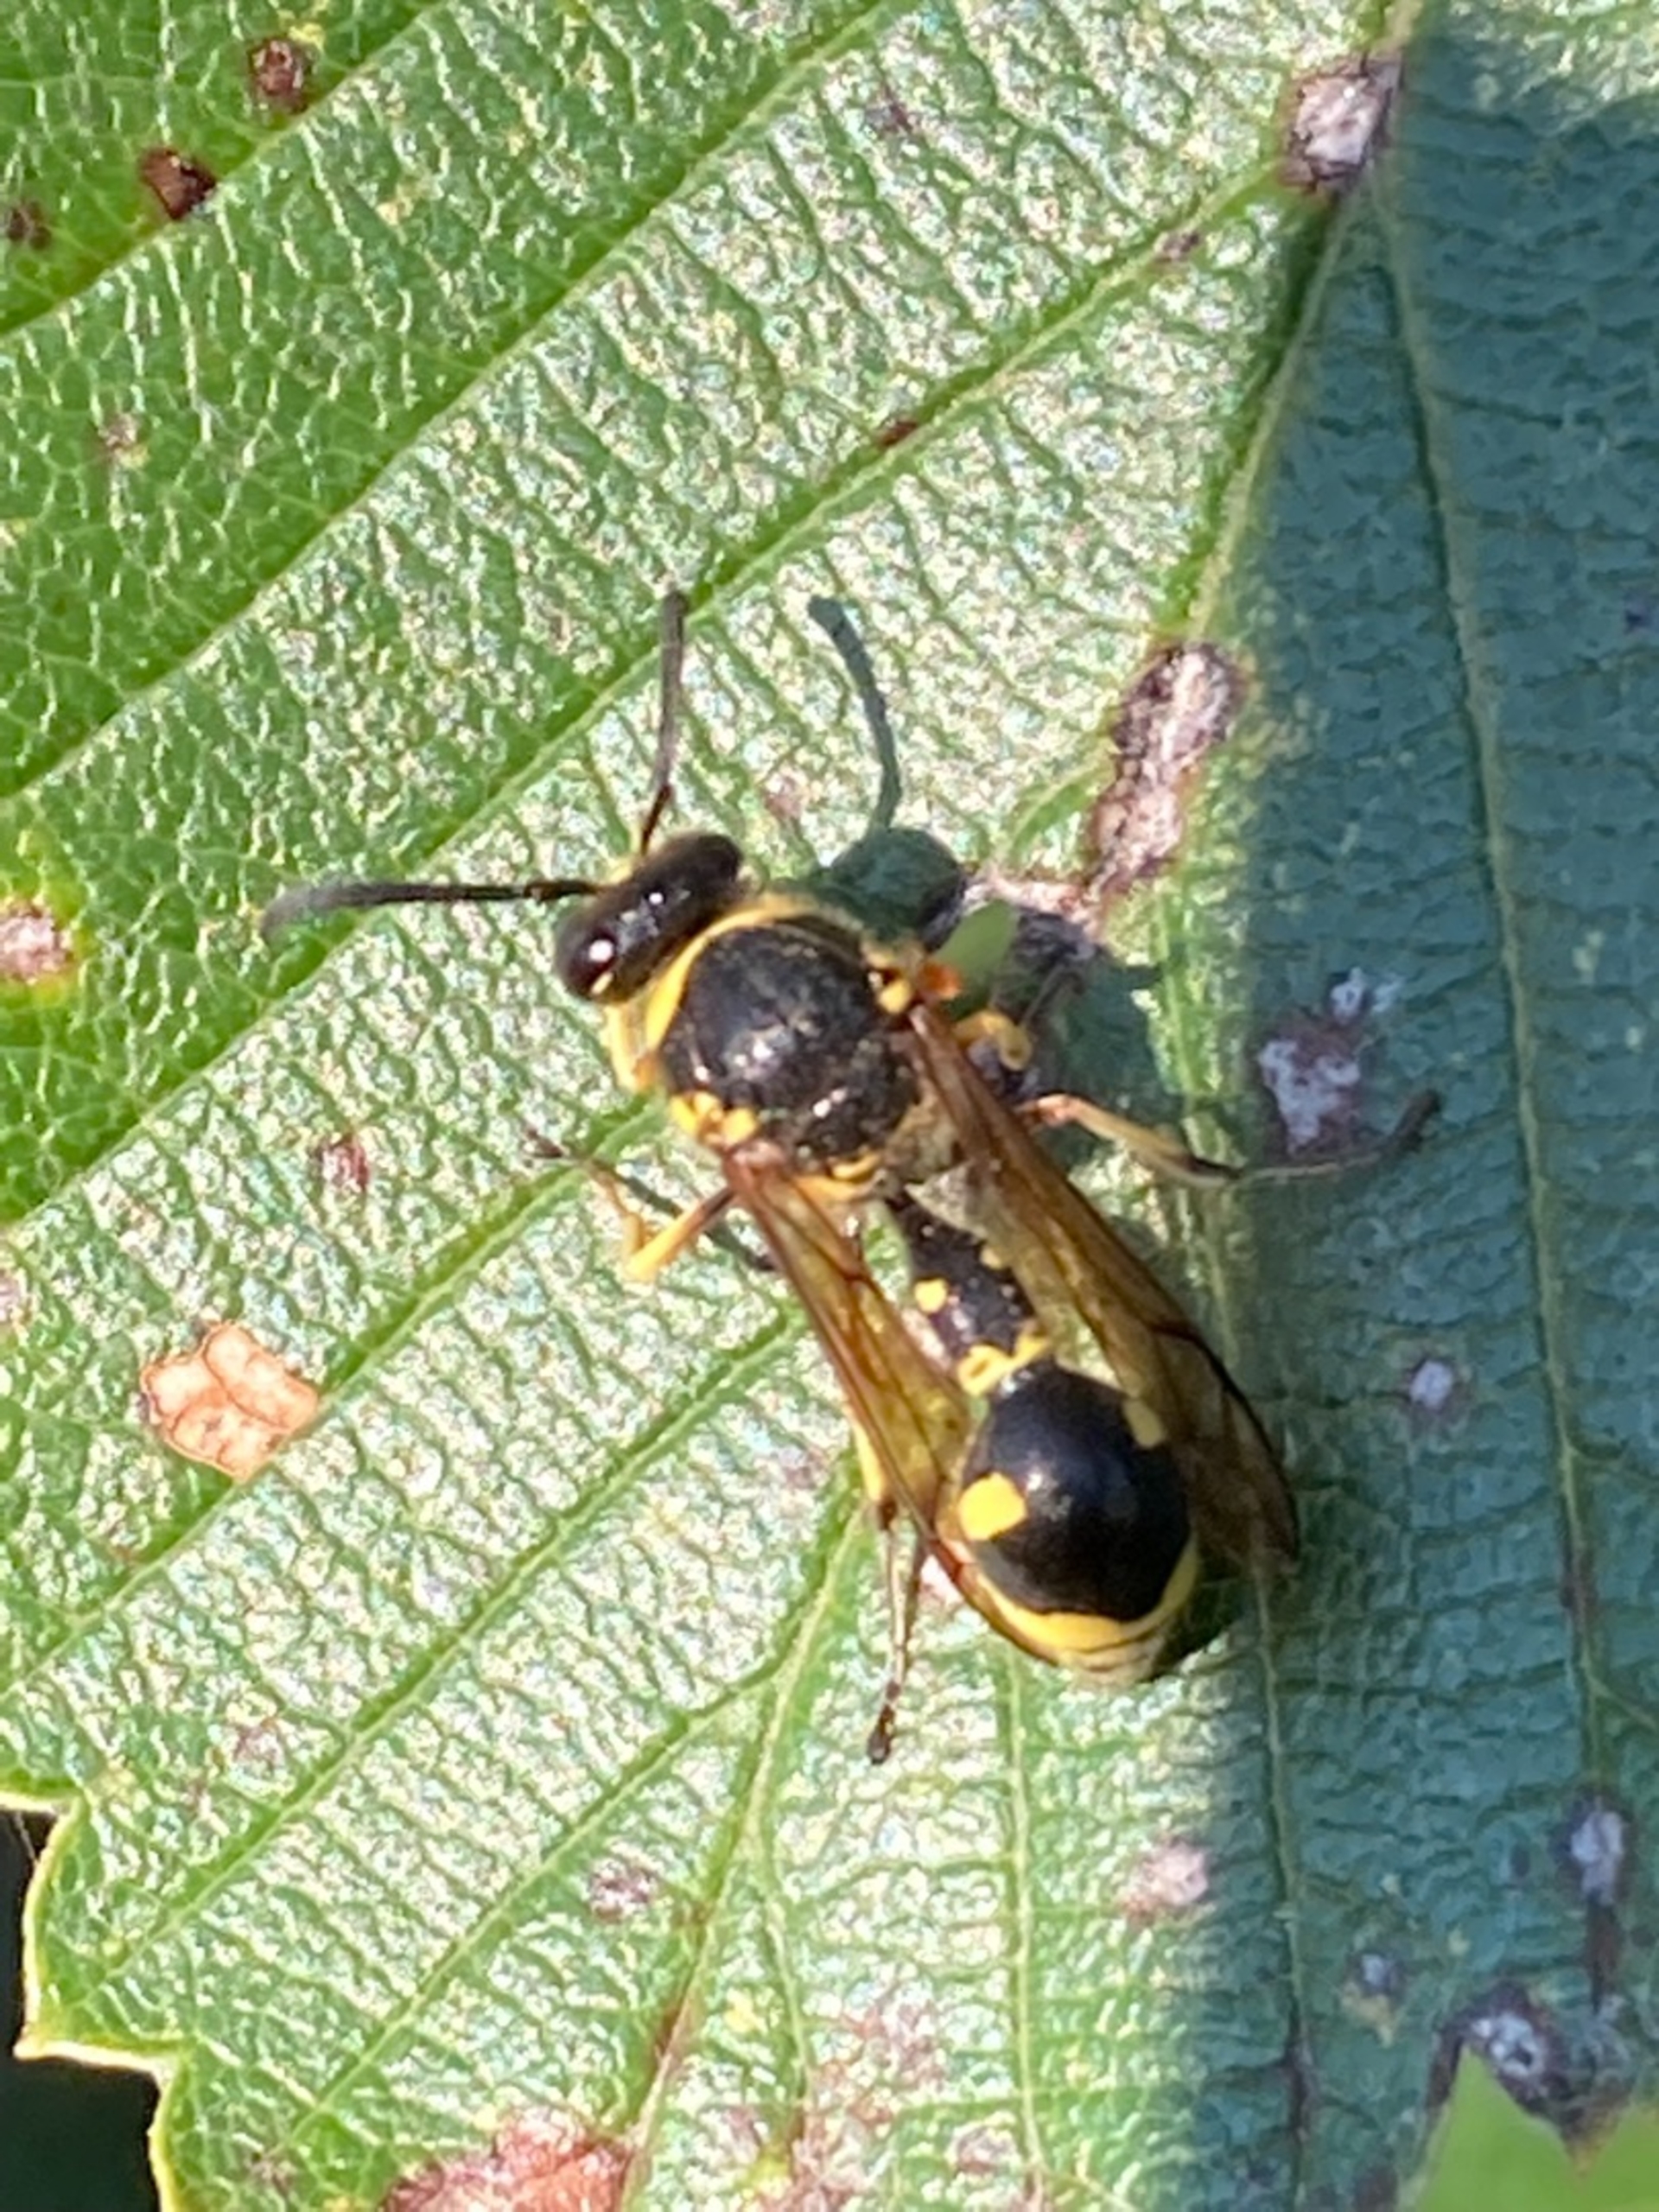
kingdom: Animalia
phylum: Arthropoda
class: Insecta
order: Hymenoptera
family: Vespidae
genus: Eumenes
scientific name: Eumenes
